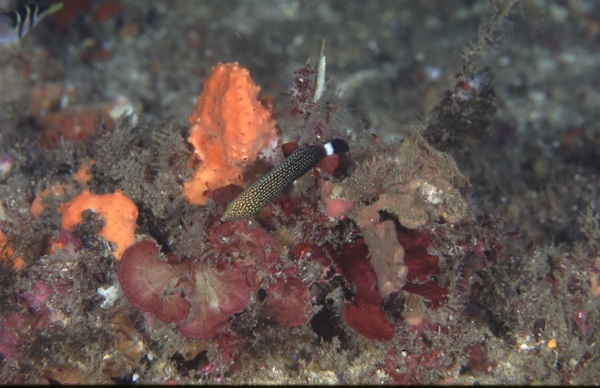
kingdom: Animalia
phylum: Chordata
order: Perciformes
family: Labridae
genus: Anampses
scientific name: Anampses lineatus
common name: Lined wrasse
